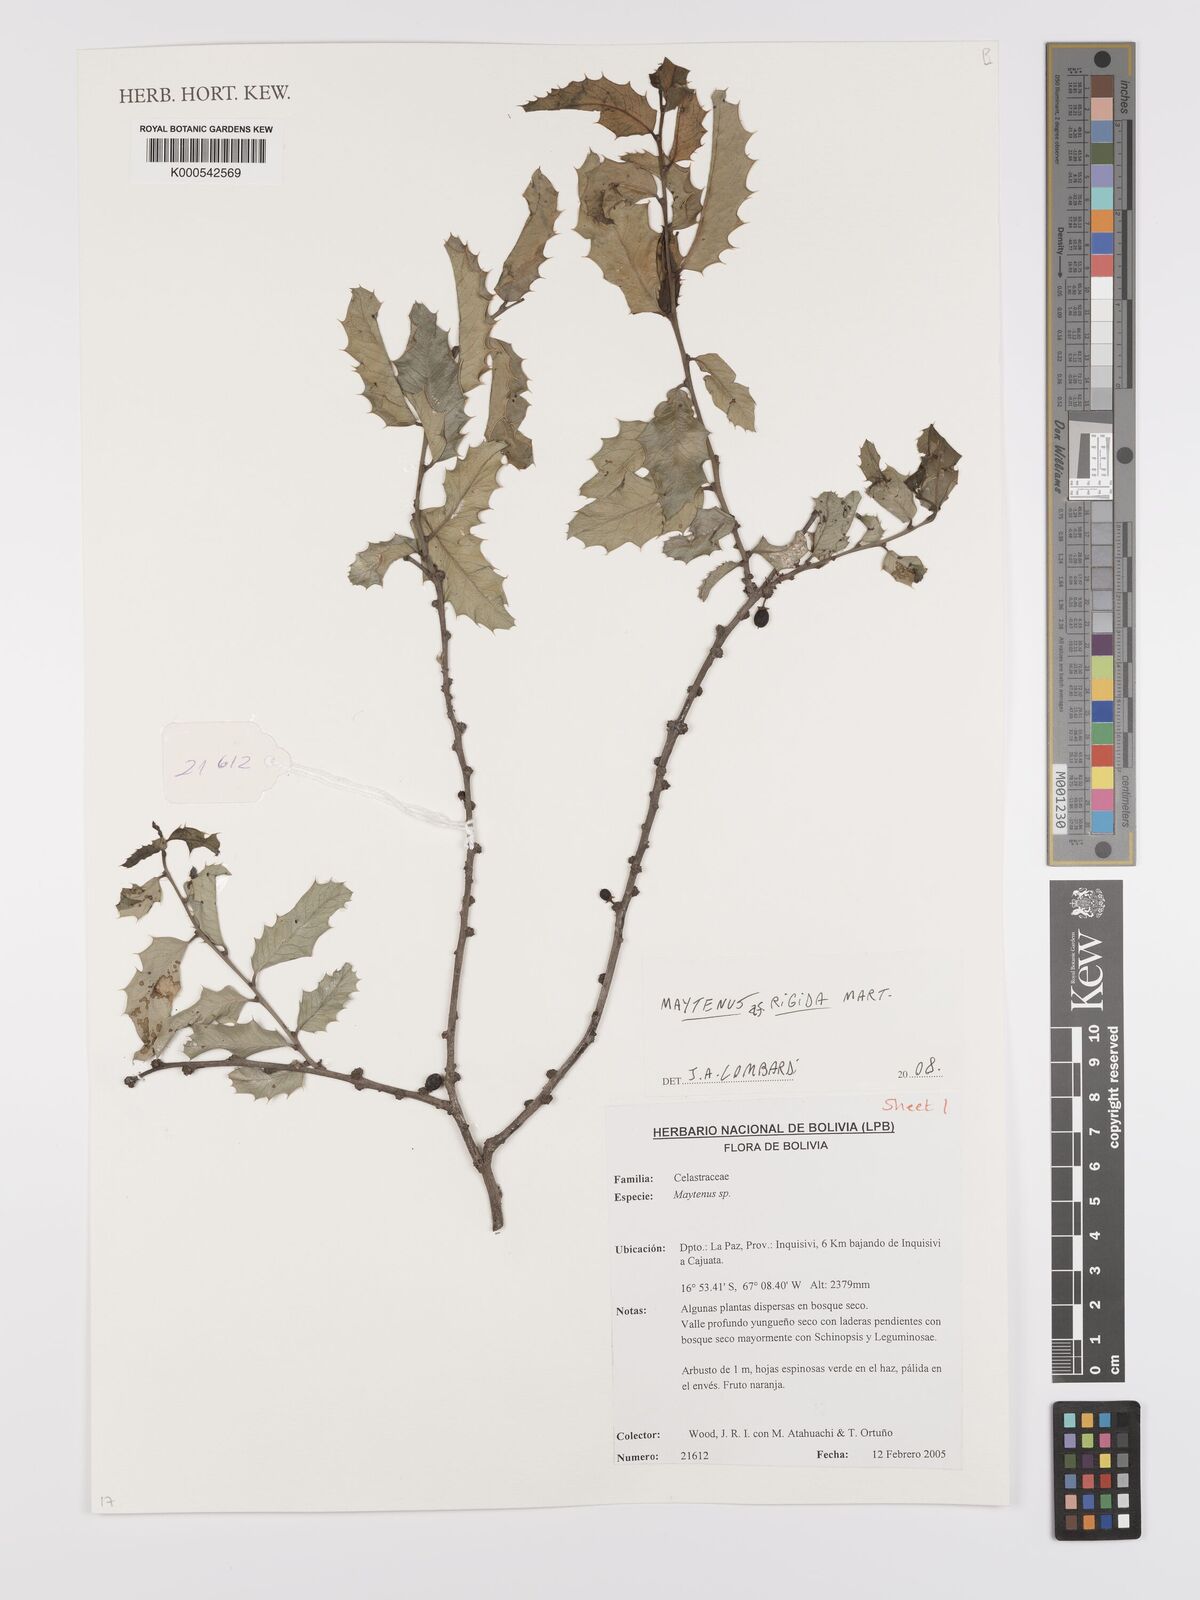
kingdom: Plantae
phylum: Tracheophyta
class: Magnoliopsida
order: Celastrales
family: Celastraceae
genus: Monteverdia
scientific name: Monteverdia rigida
